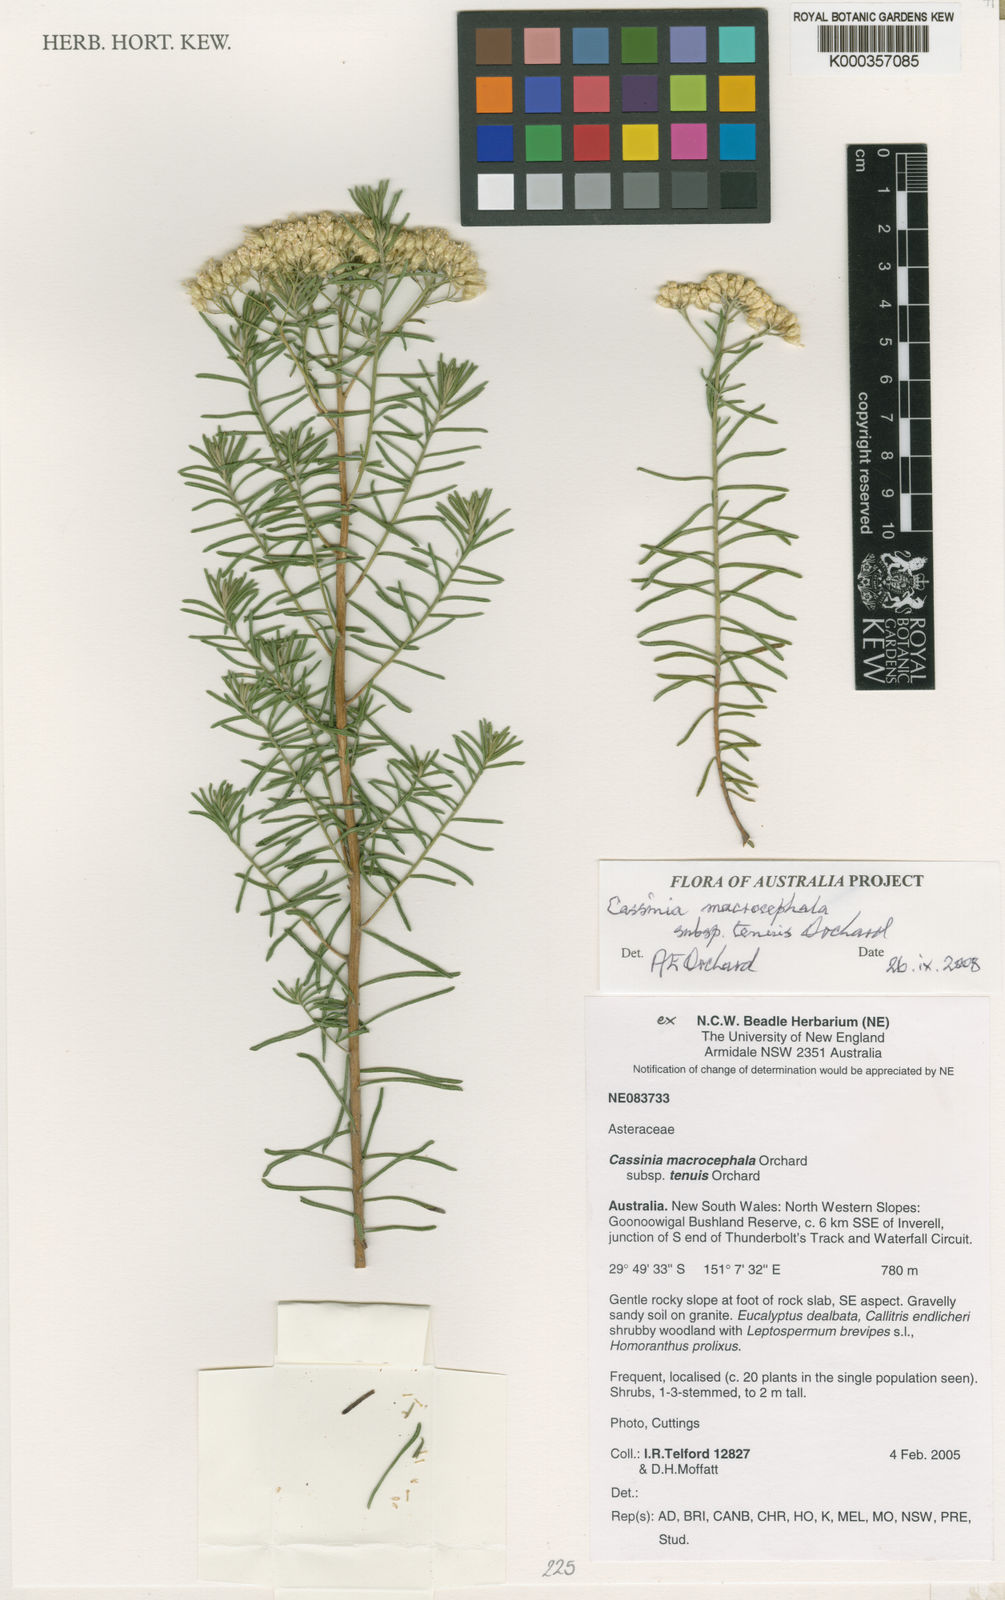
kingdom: Plantae
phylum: Tracheophyta
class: Magnoliopsida
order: Asterales
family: Asteraceae
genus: Cassinia
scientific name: Cassinia tenuis
